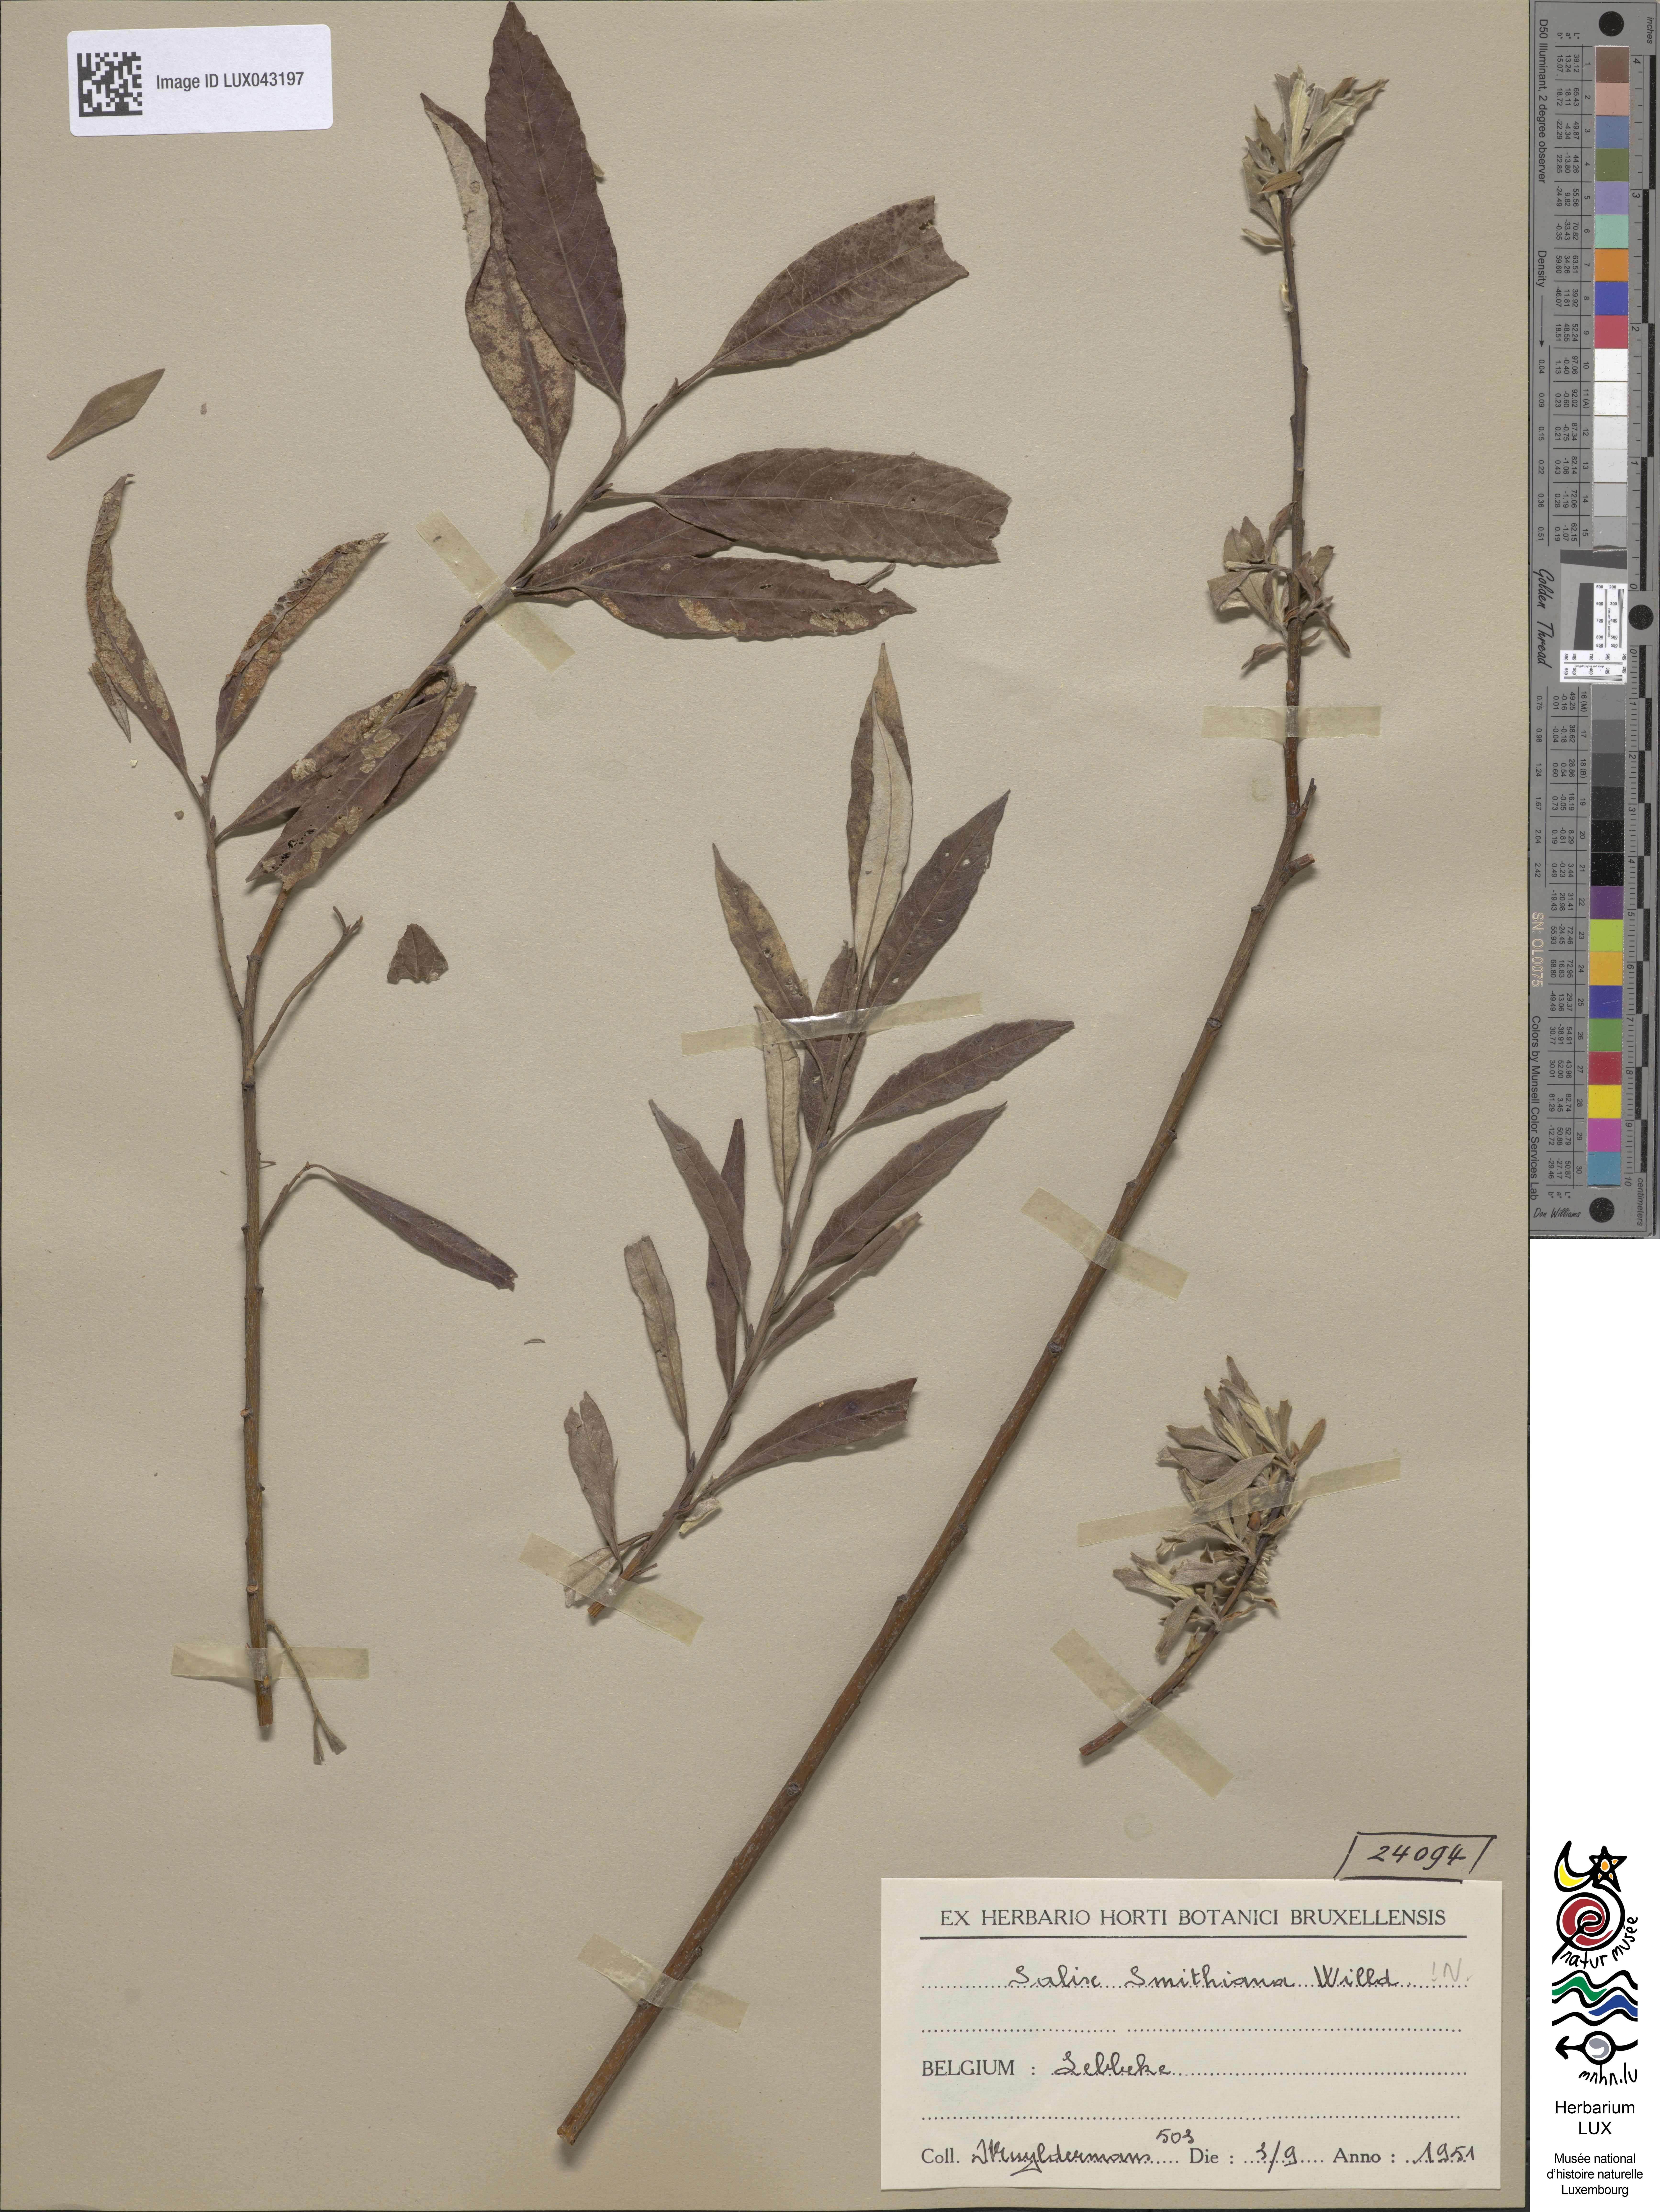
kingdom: Plantae
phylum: Tracheophyta
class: Magnoliopsida
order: Malpighiales
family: Salicaceae
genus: Salix
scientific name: Salix stipularis
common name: Eared osier
